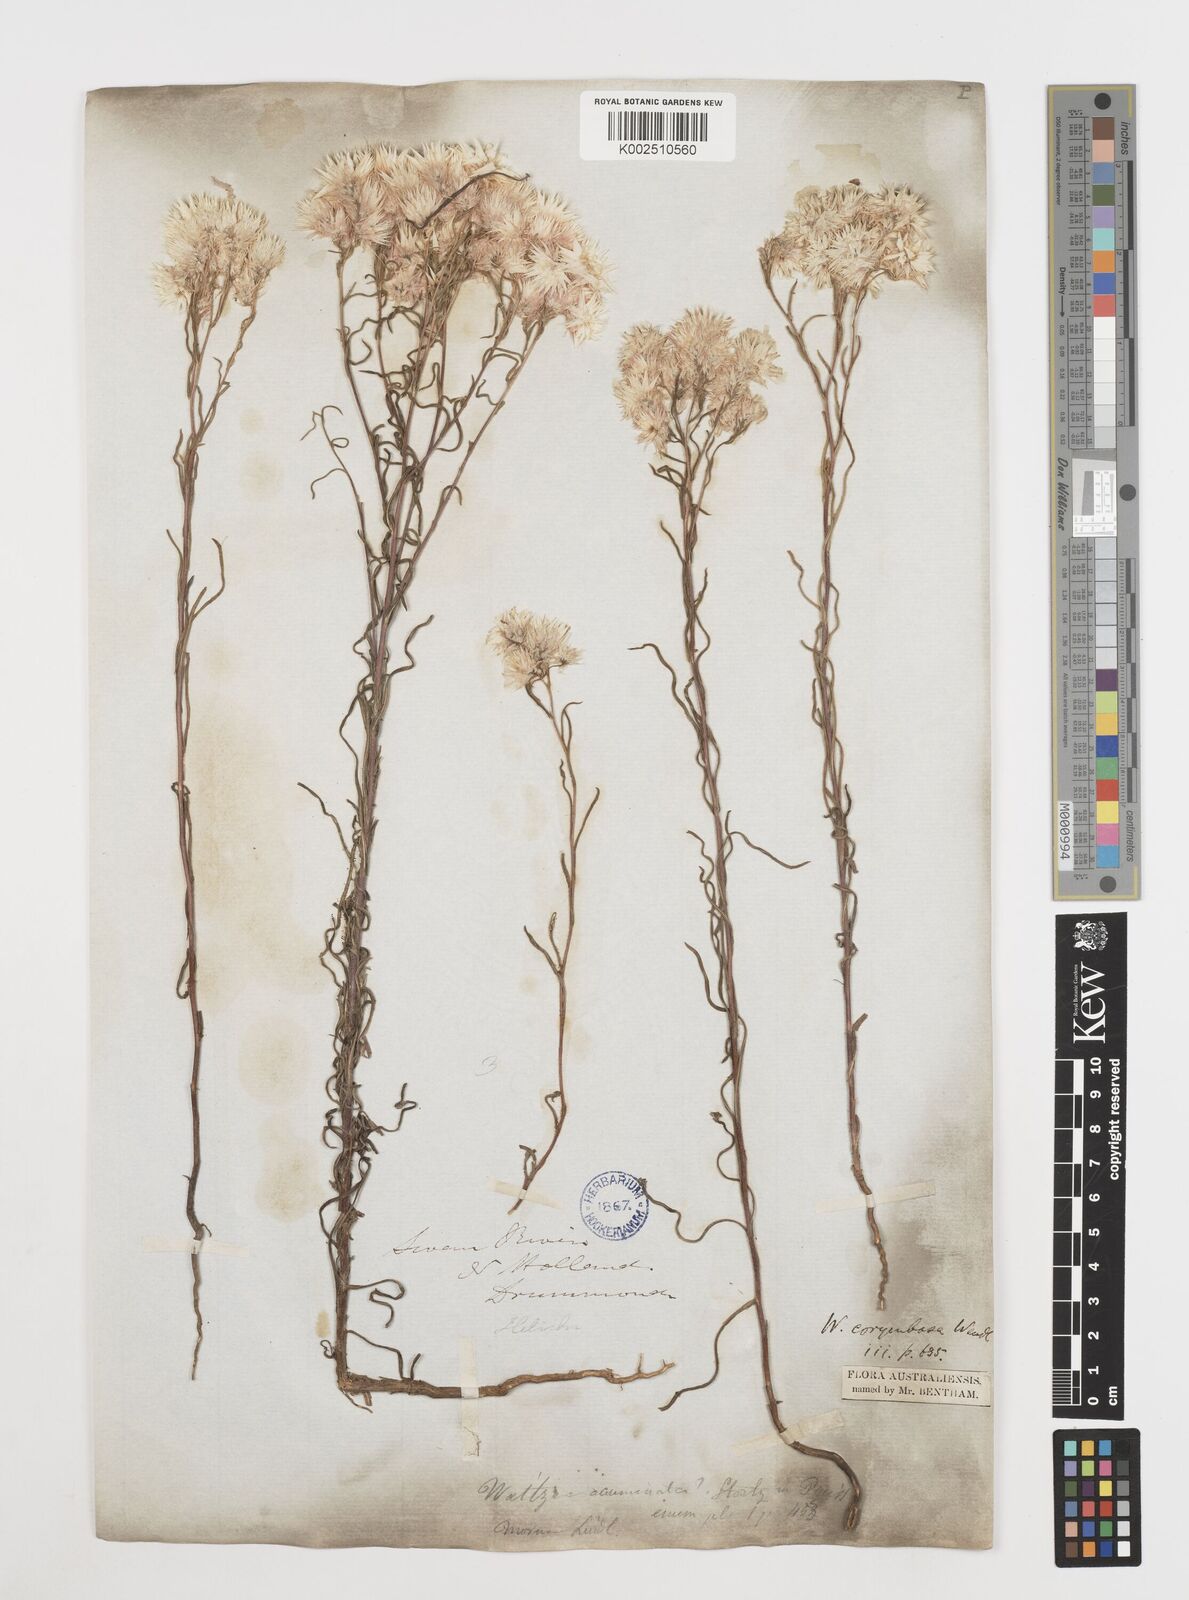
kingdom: Plantae
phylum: Tracheophyta
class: Magnoliopsida
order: Asterales
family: Asteraceae
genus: Waitzia
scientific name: Waitzia acuminata
